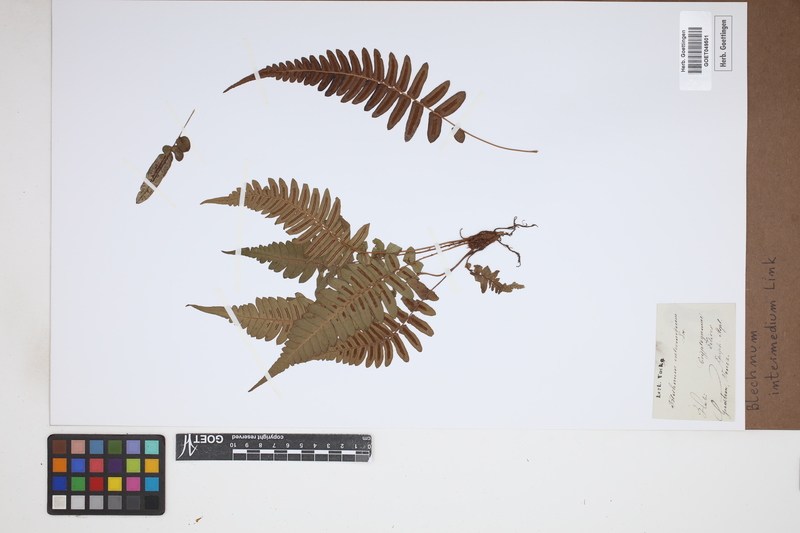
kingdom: Plantae
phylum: Tracheophyta
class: Polypodiopsida
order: Polypodiales
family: Blechnaceae
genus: Blechnum
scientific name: Blechnum gracile
